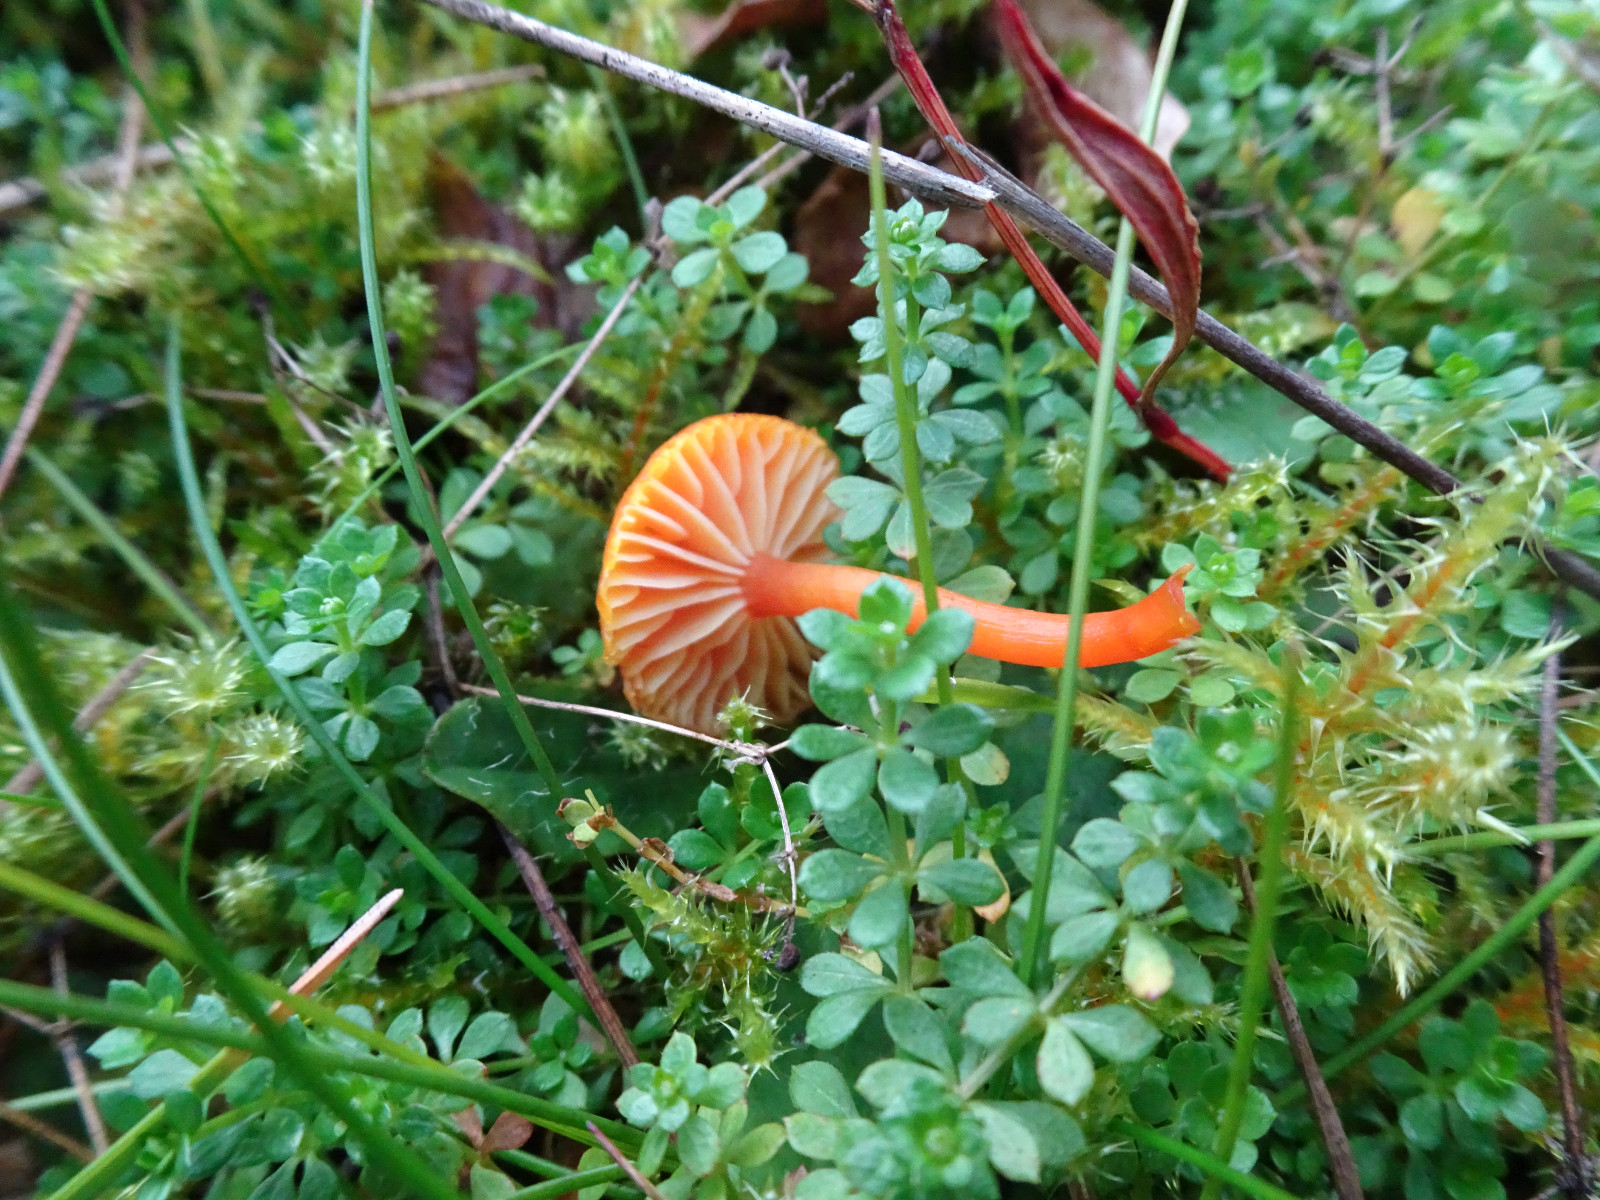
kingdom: Fungi
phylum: Basidiomycota
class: Agaricomycetes
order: Agaricales
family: Hygrophoraceae
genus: Hygrocybe
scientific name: Hygrocybe insipida
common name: liden vokshat
